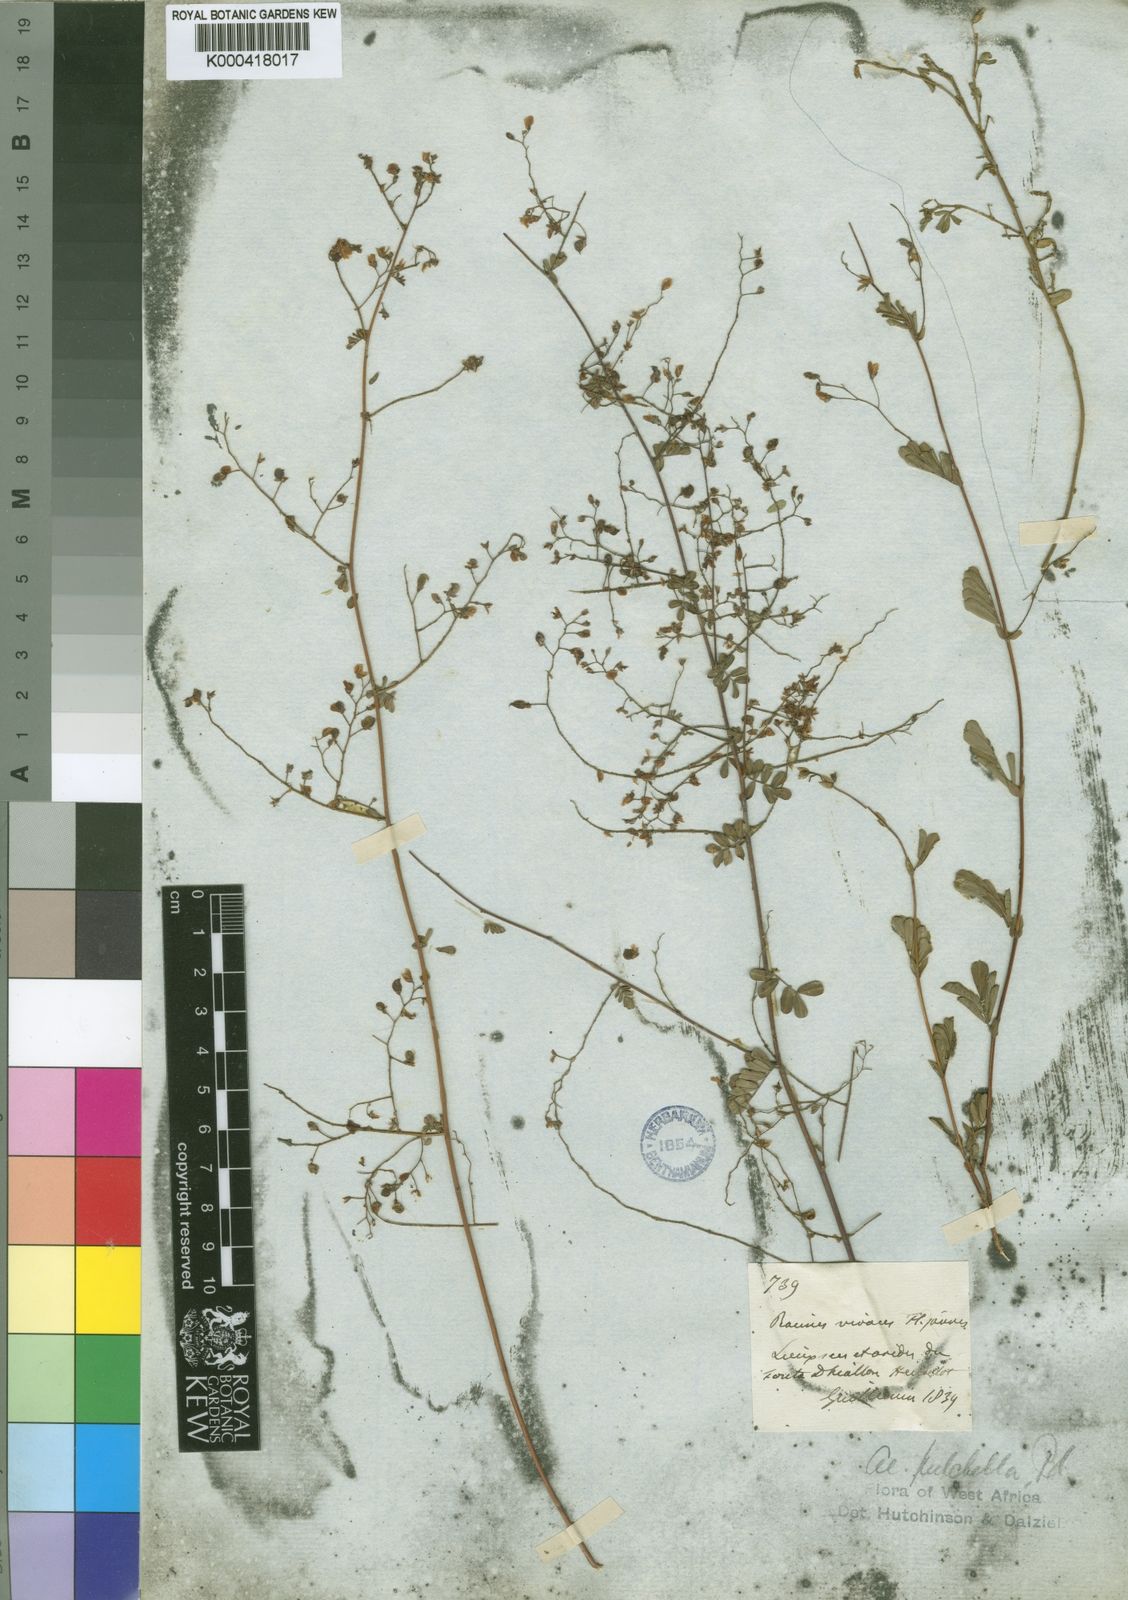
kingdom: Plantae
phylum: Tracheophyta
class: Magnoliopsida
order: Fabales
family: Fabaceae
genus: Aeschynomene
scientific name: Aeschynomene pulchella
